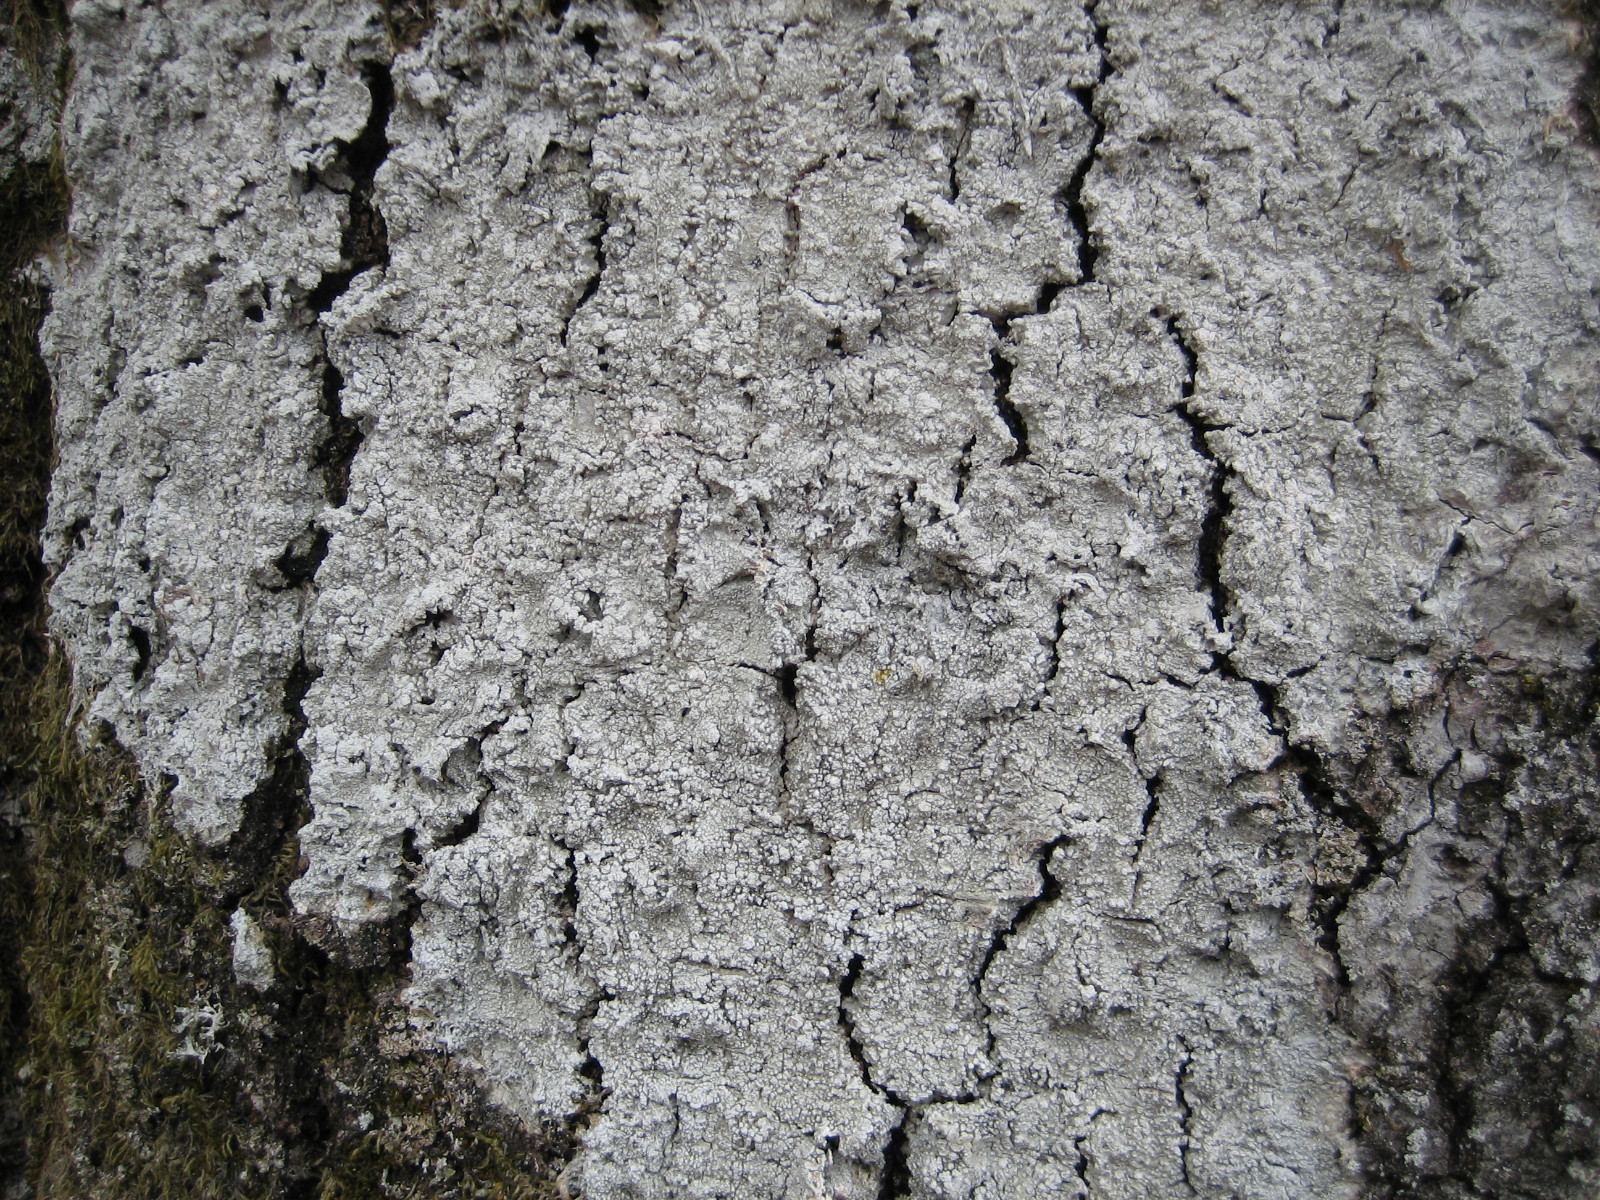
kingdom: Fungi
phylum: Ascomycota
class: Lecanoromycetes
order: Pertusariales
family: Pertusariaceae
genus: Lepra
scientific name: Lepra amara
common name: bitter prikvortelav
